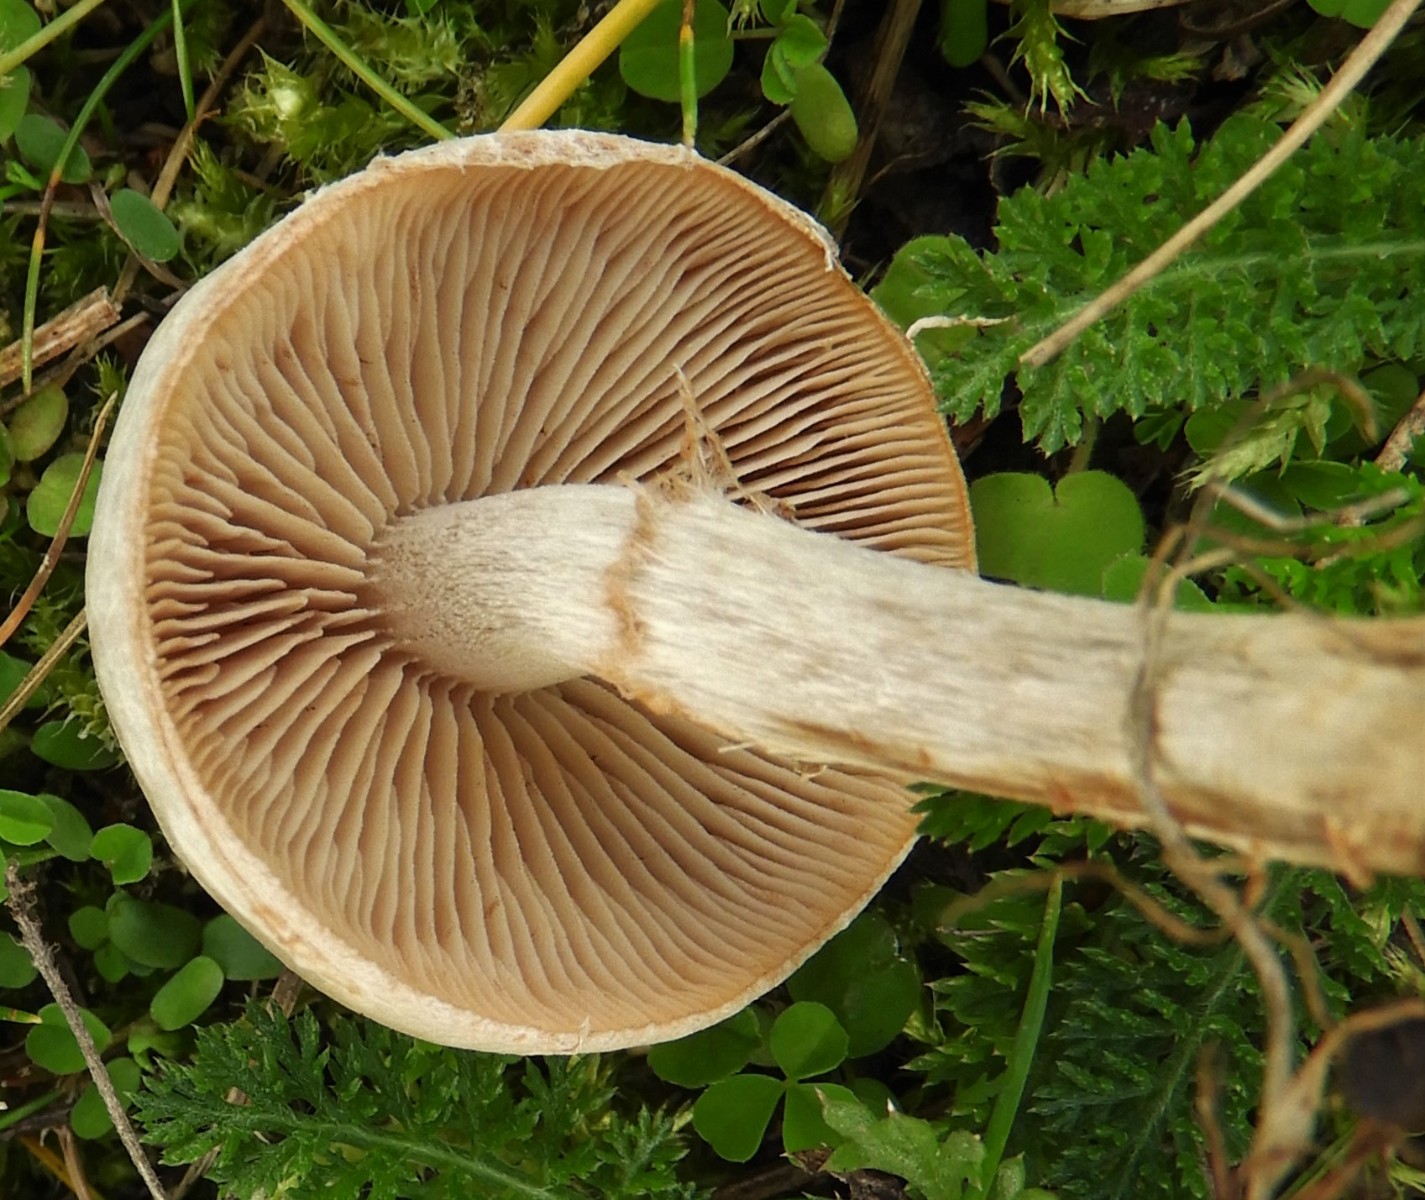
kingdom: Fungi
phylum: Basidiomycota
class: Agaricomycetes
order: Agaricales
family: Hymenogastraceae
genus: Hebeloma
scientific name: Hebeloma mesophaeum
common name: lerbrun tåreblad
